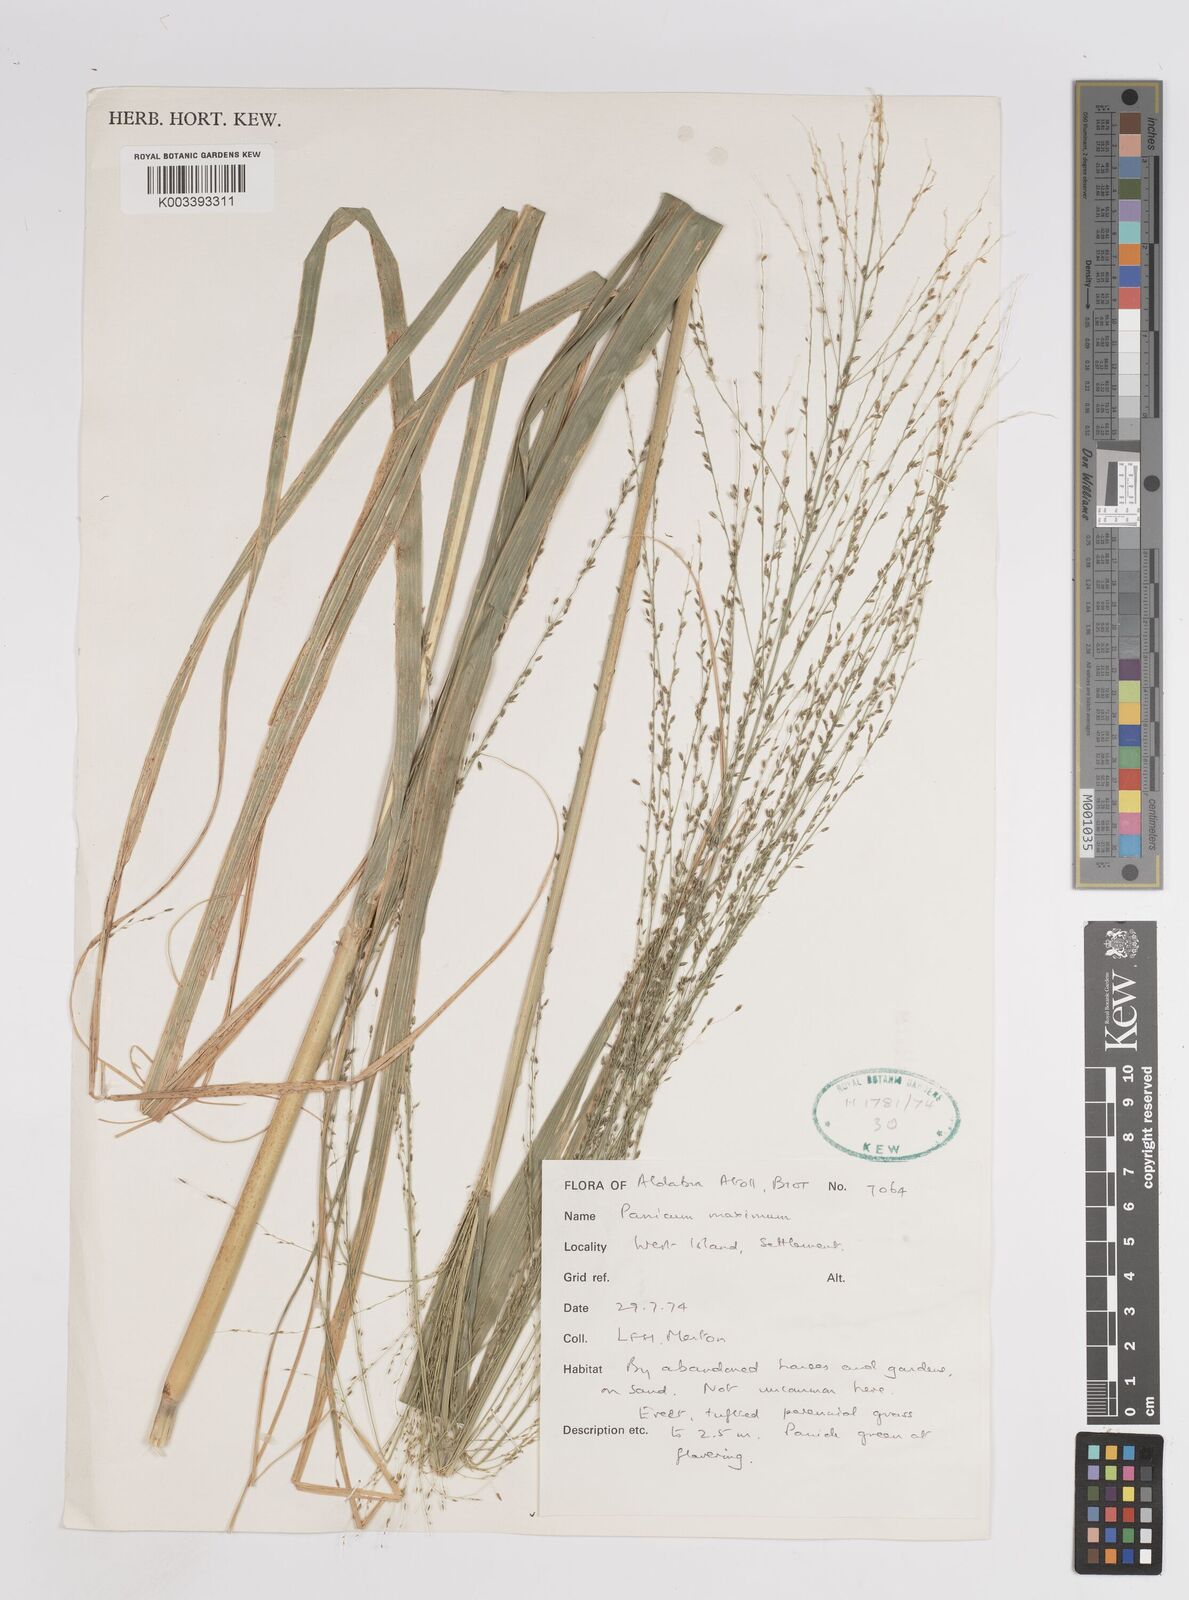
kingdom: Plantae
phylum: Tracheophyta
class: Liliopsida
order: Poales
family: Poaceae
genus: Megathyrsus
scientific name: Megathyrsus maximus
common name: Guineagrass
